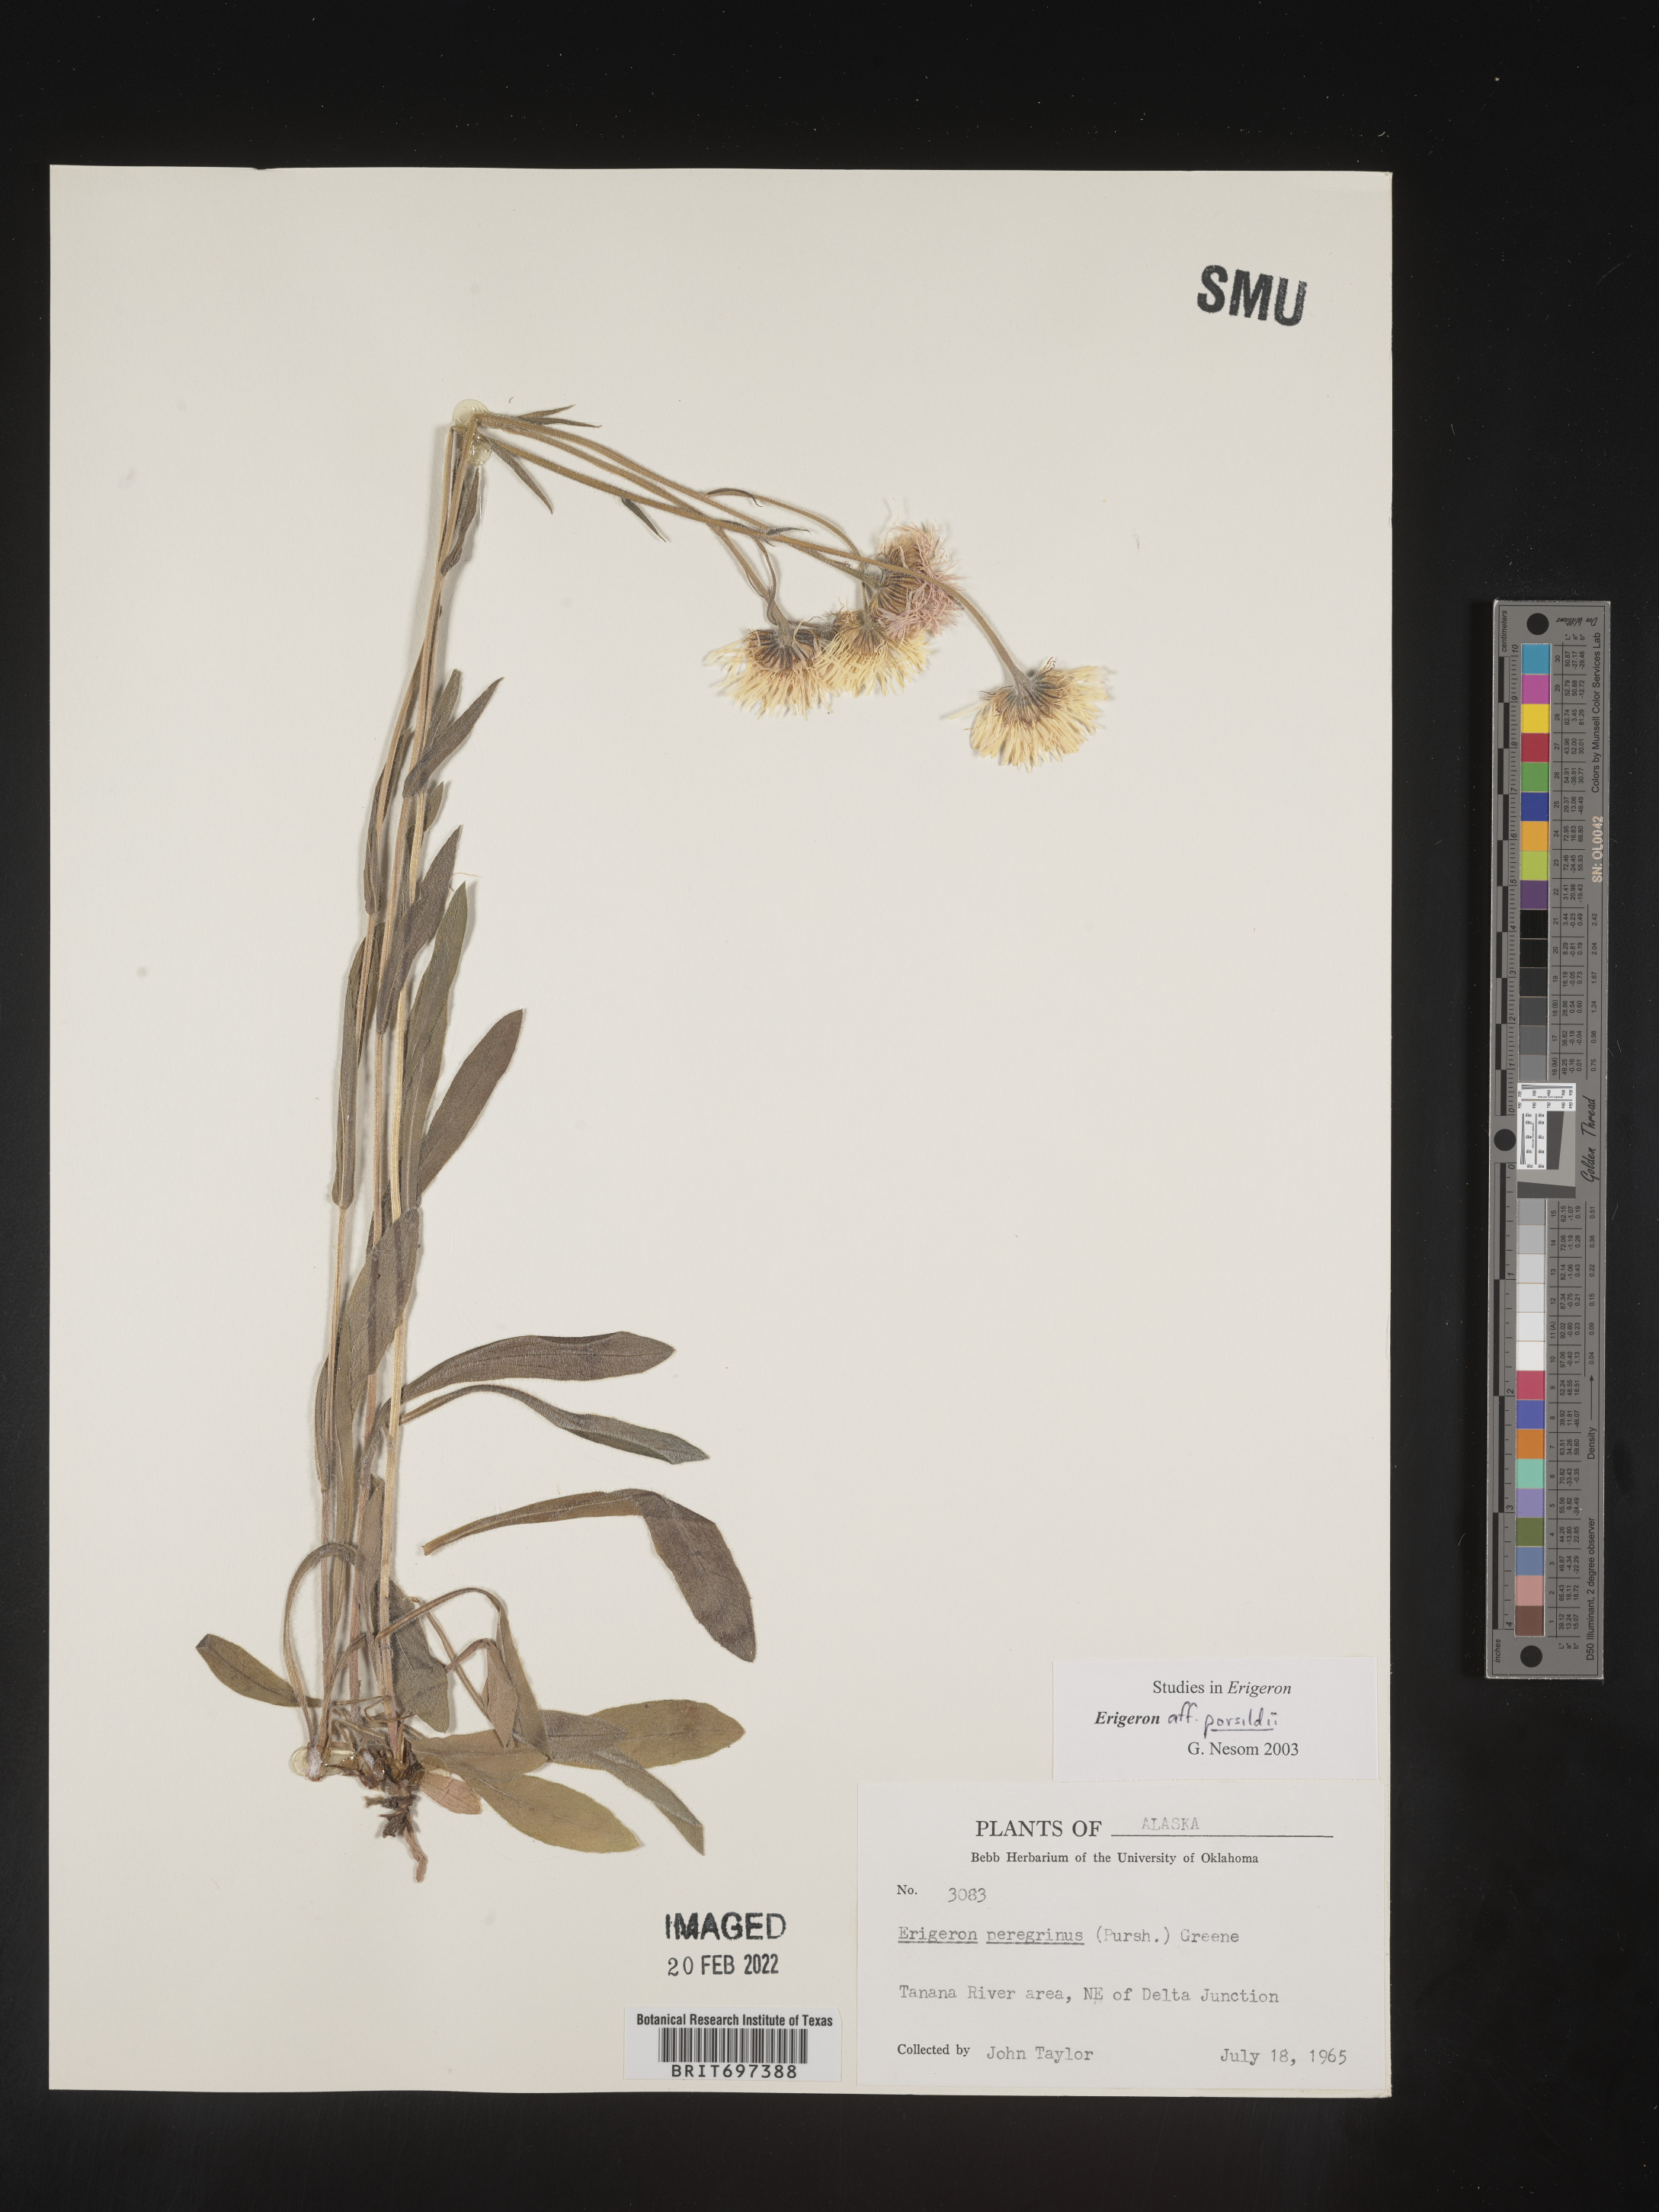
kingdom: Plantae
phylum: Tracheophyta
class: Magnoliopsida
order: Asterales
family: Asteraceae
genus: Erigeron
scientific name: Erigeron porsildii
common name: Porsild's arctic fleabane
